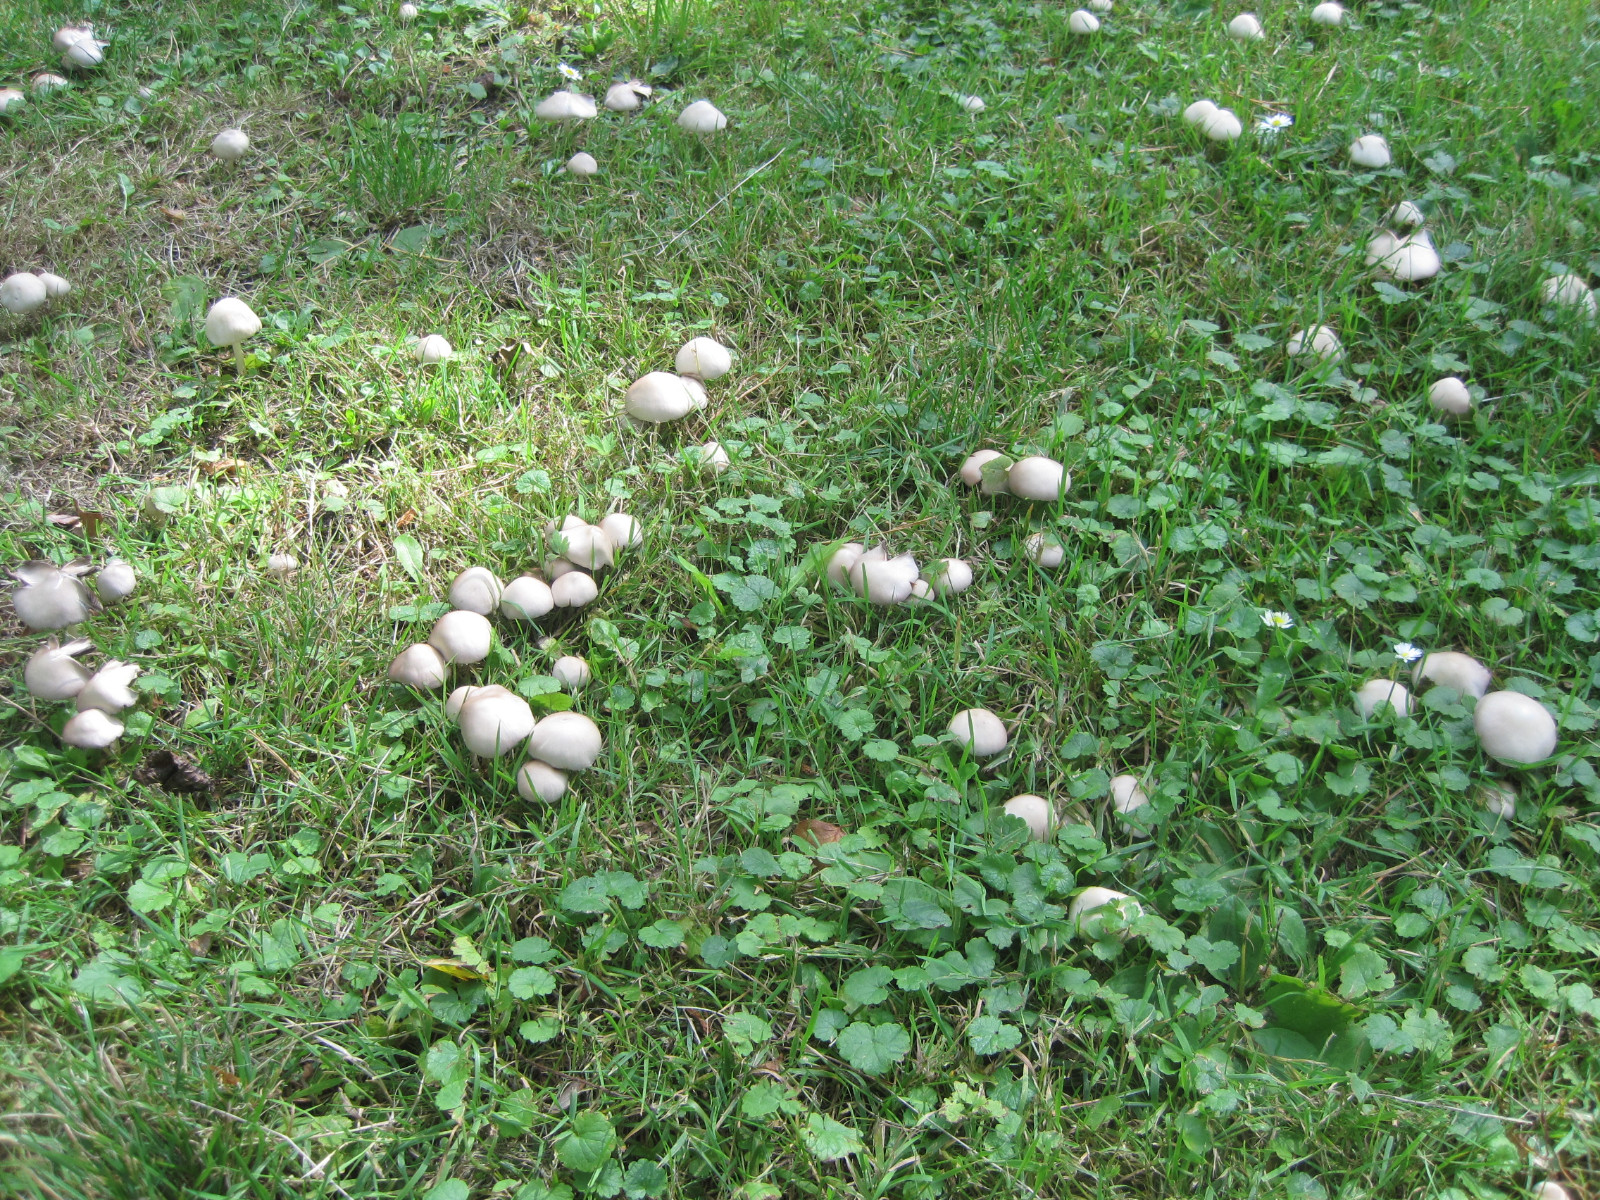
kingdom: Fungi
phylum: Basidiomycota
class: Agaricomycetes
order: Agaricales
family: Psathyrellaceae
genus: Candolleomyces
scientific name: Candolleomyces candolleanus
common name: Candolles mørkhat
